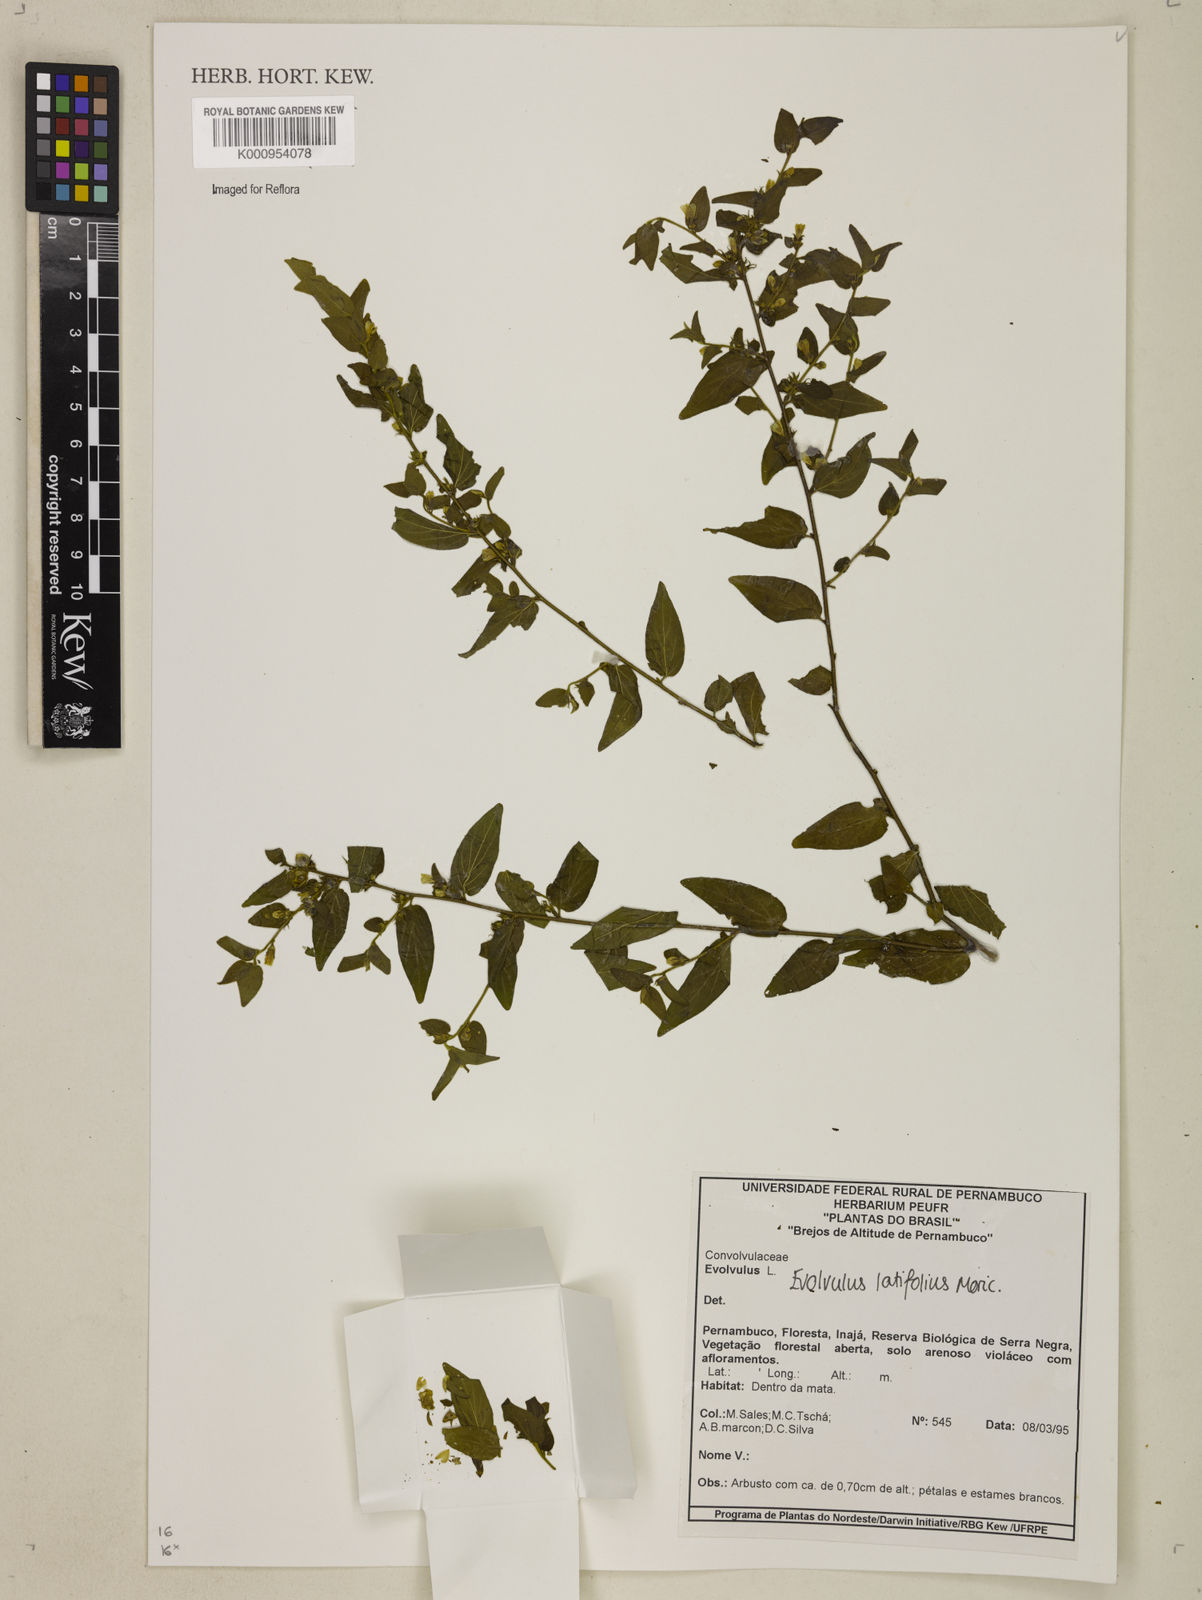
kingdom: Plantae
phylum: Tracheophyta
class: Magnoliopsida
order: Solanales
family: Convolvulaceae
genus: Evolvulus
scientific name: Evolvulus latifolius
